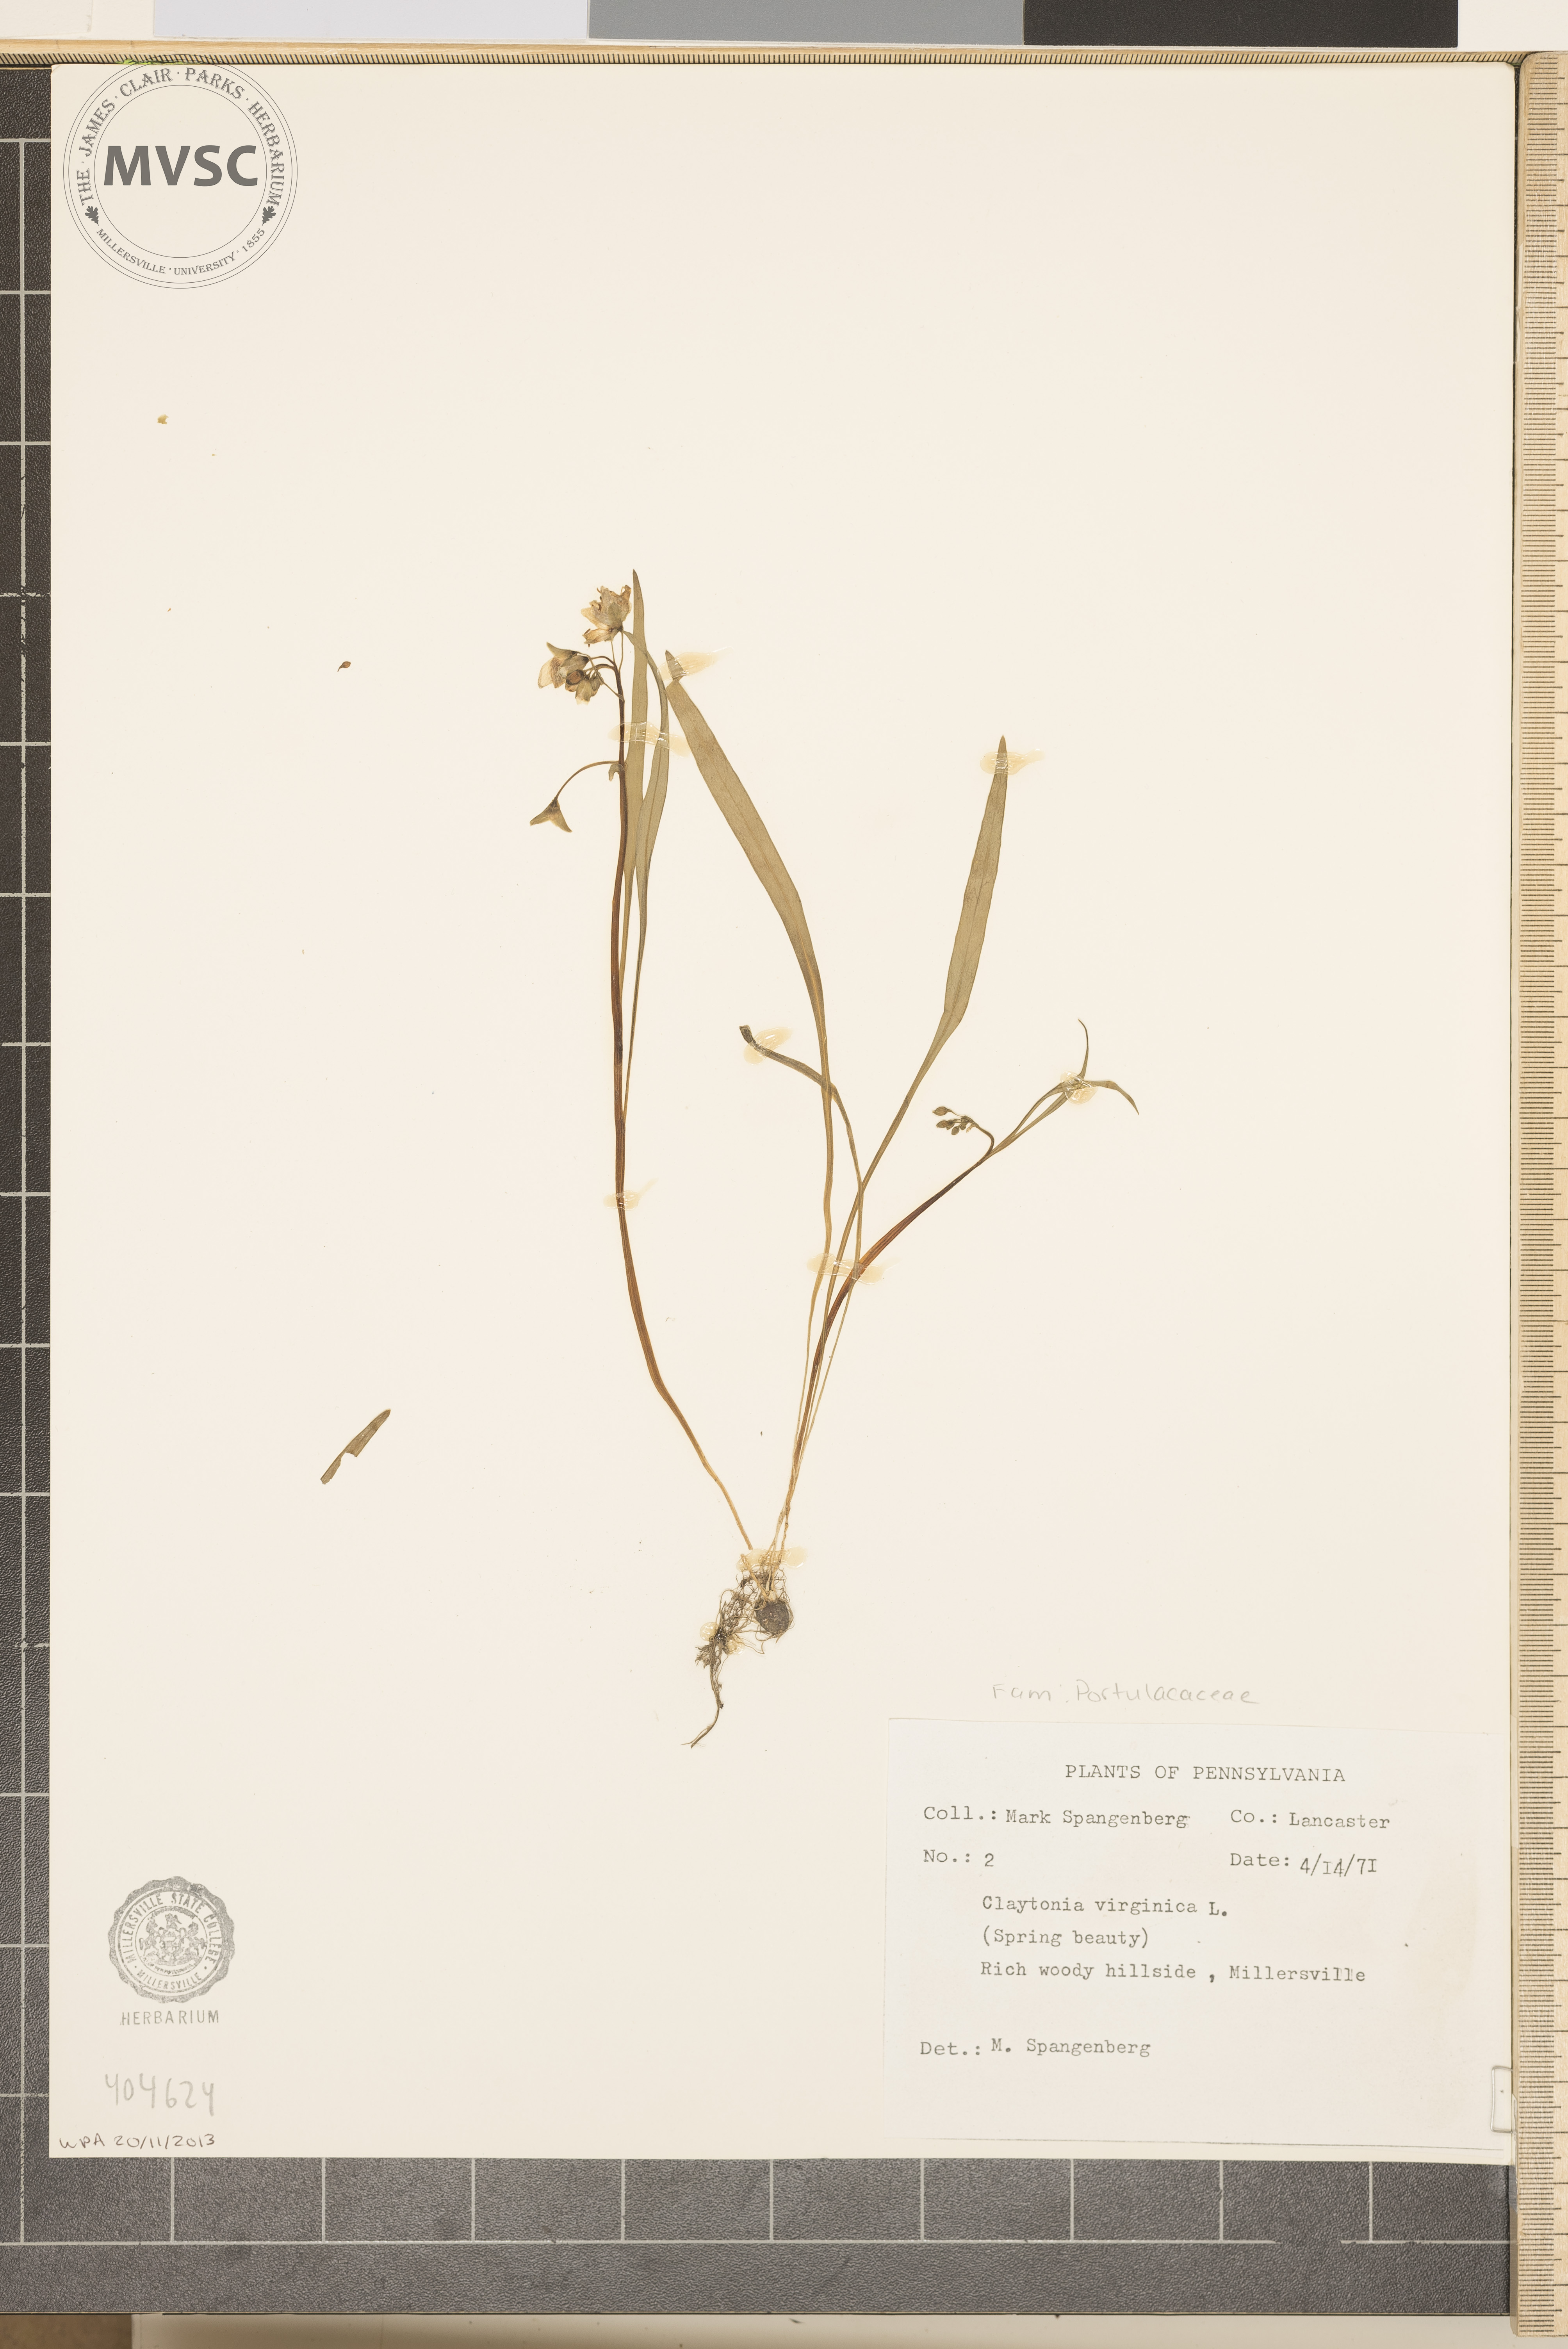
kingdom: Plantae
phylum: Tracheophyta
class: Magnoliopsida
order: Caryophyllales
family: Montiaceae
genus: Claytonia
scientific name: Claytonia virginica
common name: Spring Beauty
